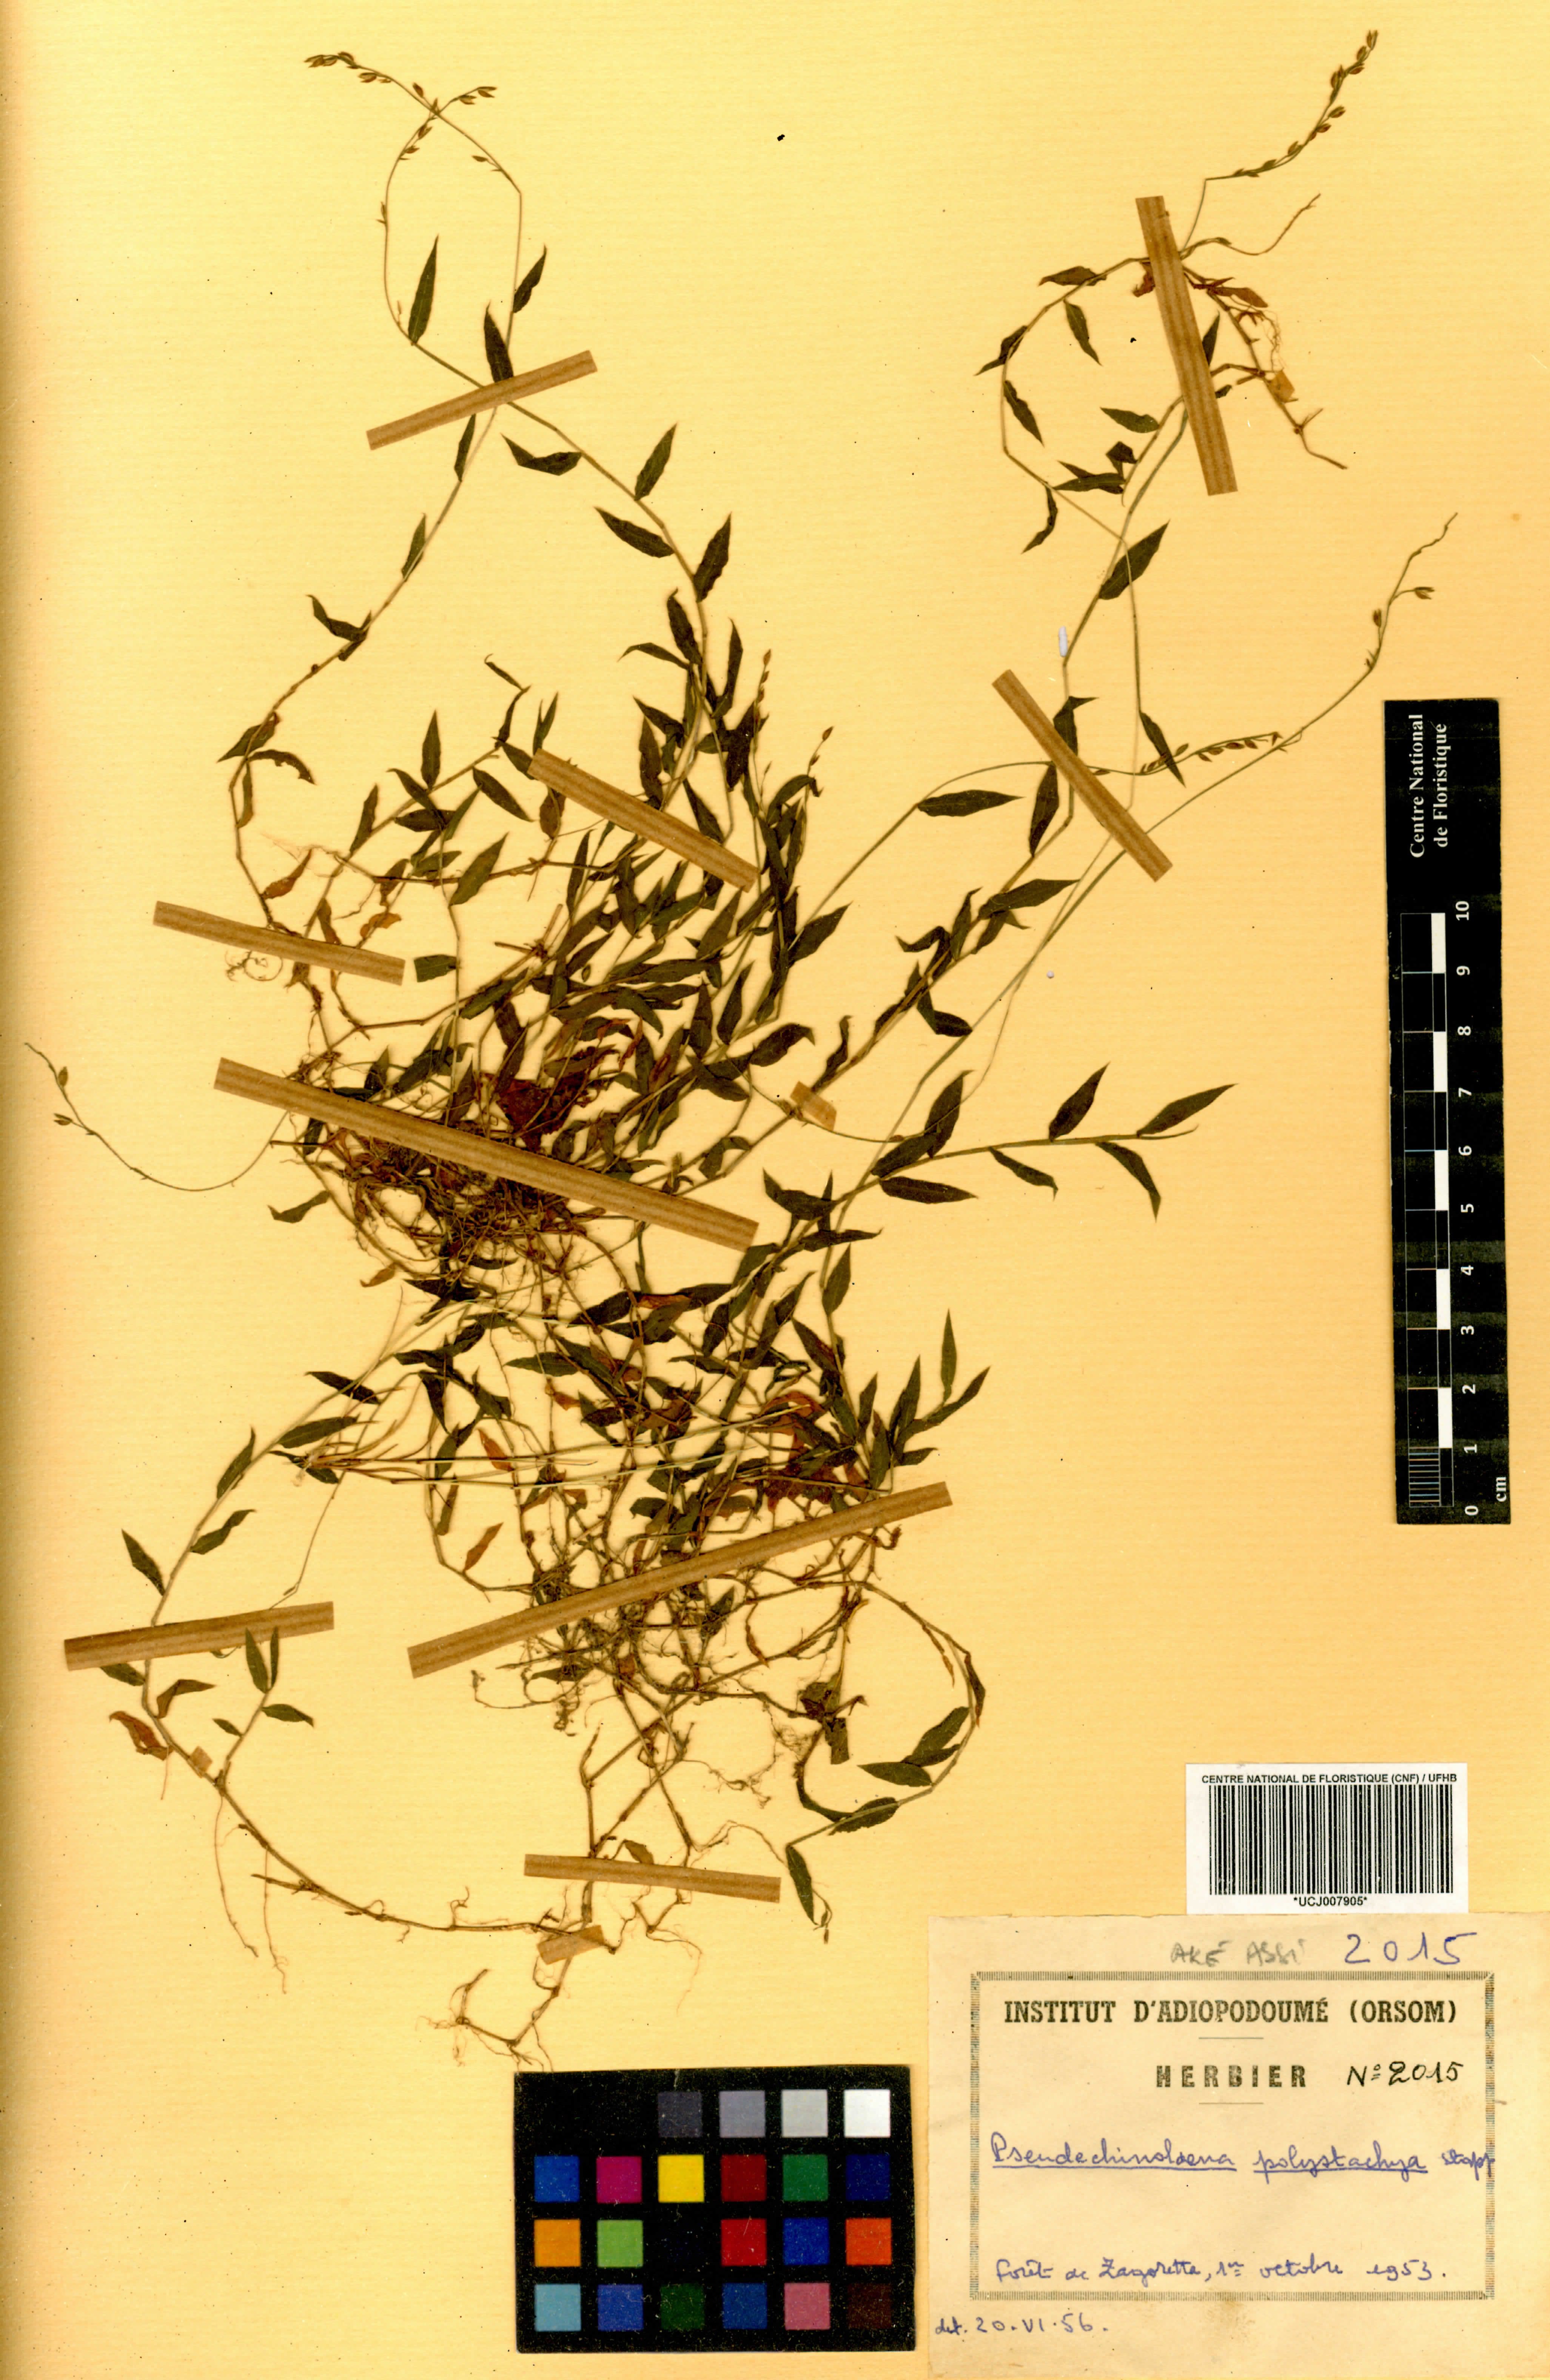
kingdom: Plantae
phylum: Tracheophyta
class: Liliopsida
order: Poales
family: Poaceae
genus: Pseudechinolaena
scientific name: Pseudechinolaena polystachya
